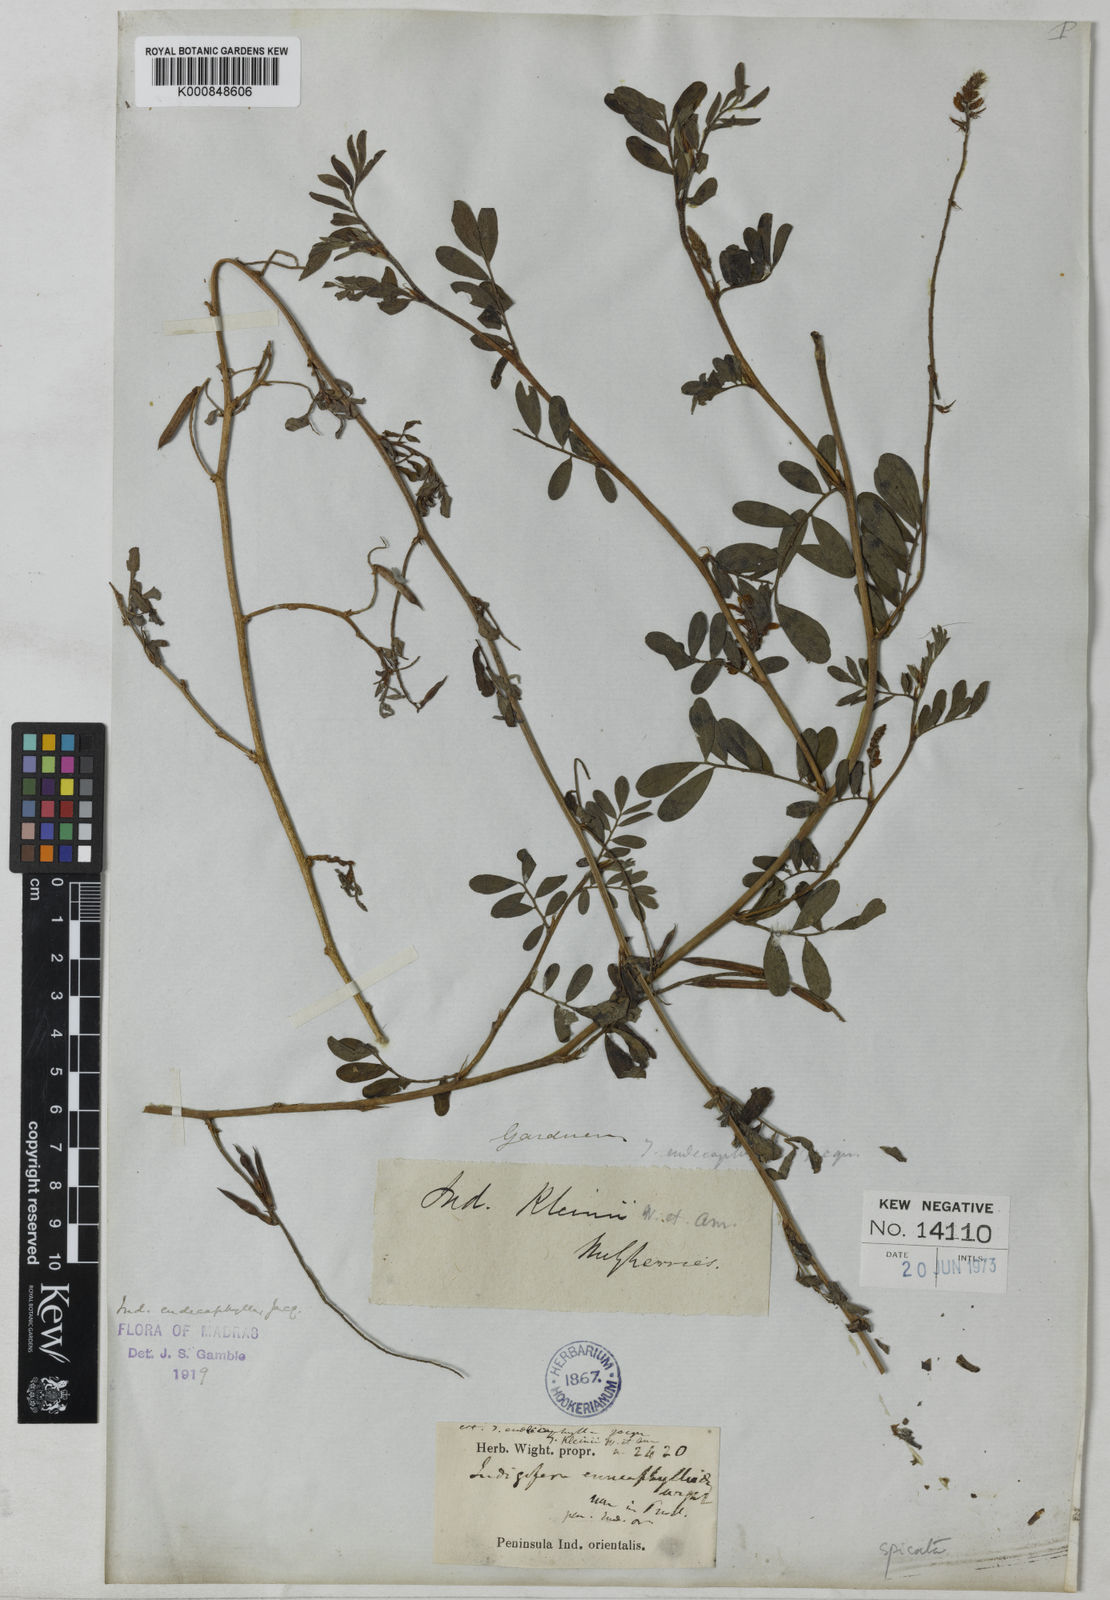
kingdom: Plantae
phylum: Tracheophyta
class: Magnoliopsida
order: Fabales
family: Fabaceae
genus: Indigofera
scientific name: Indigofera
